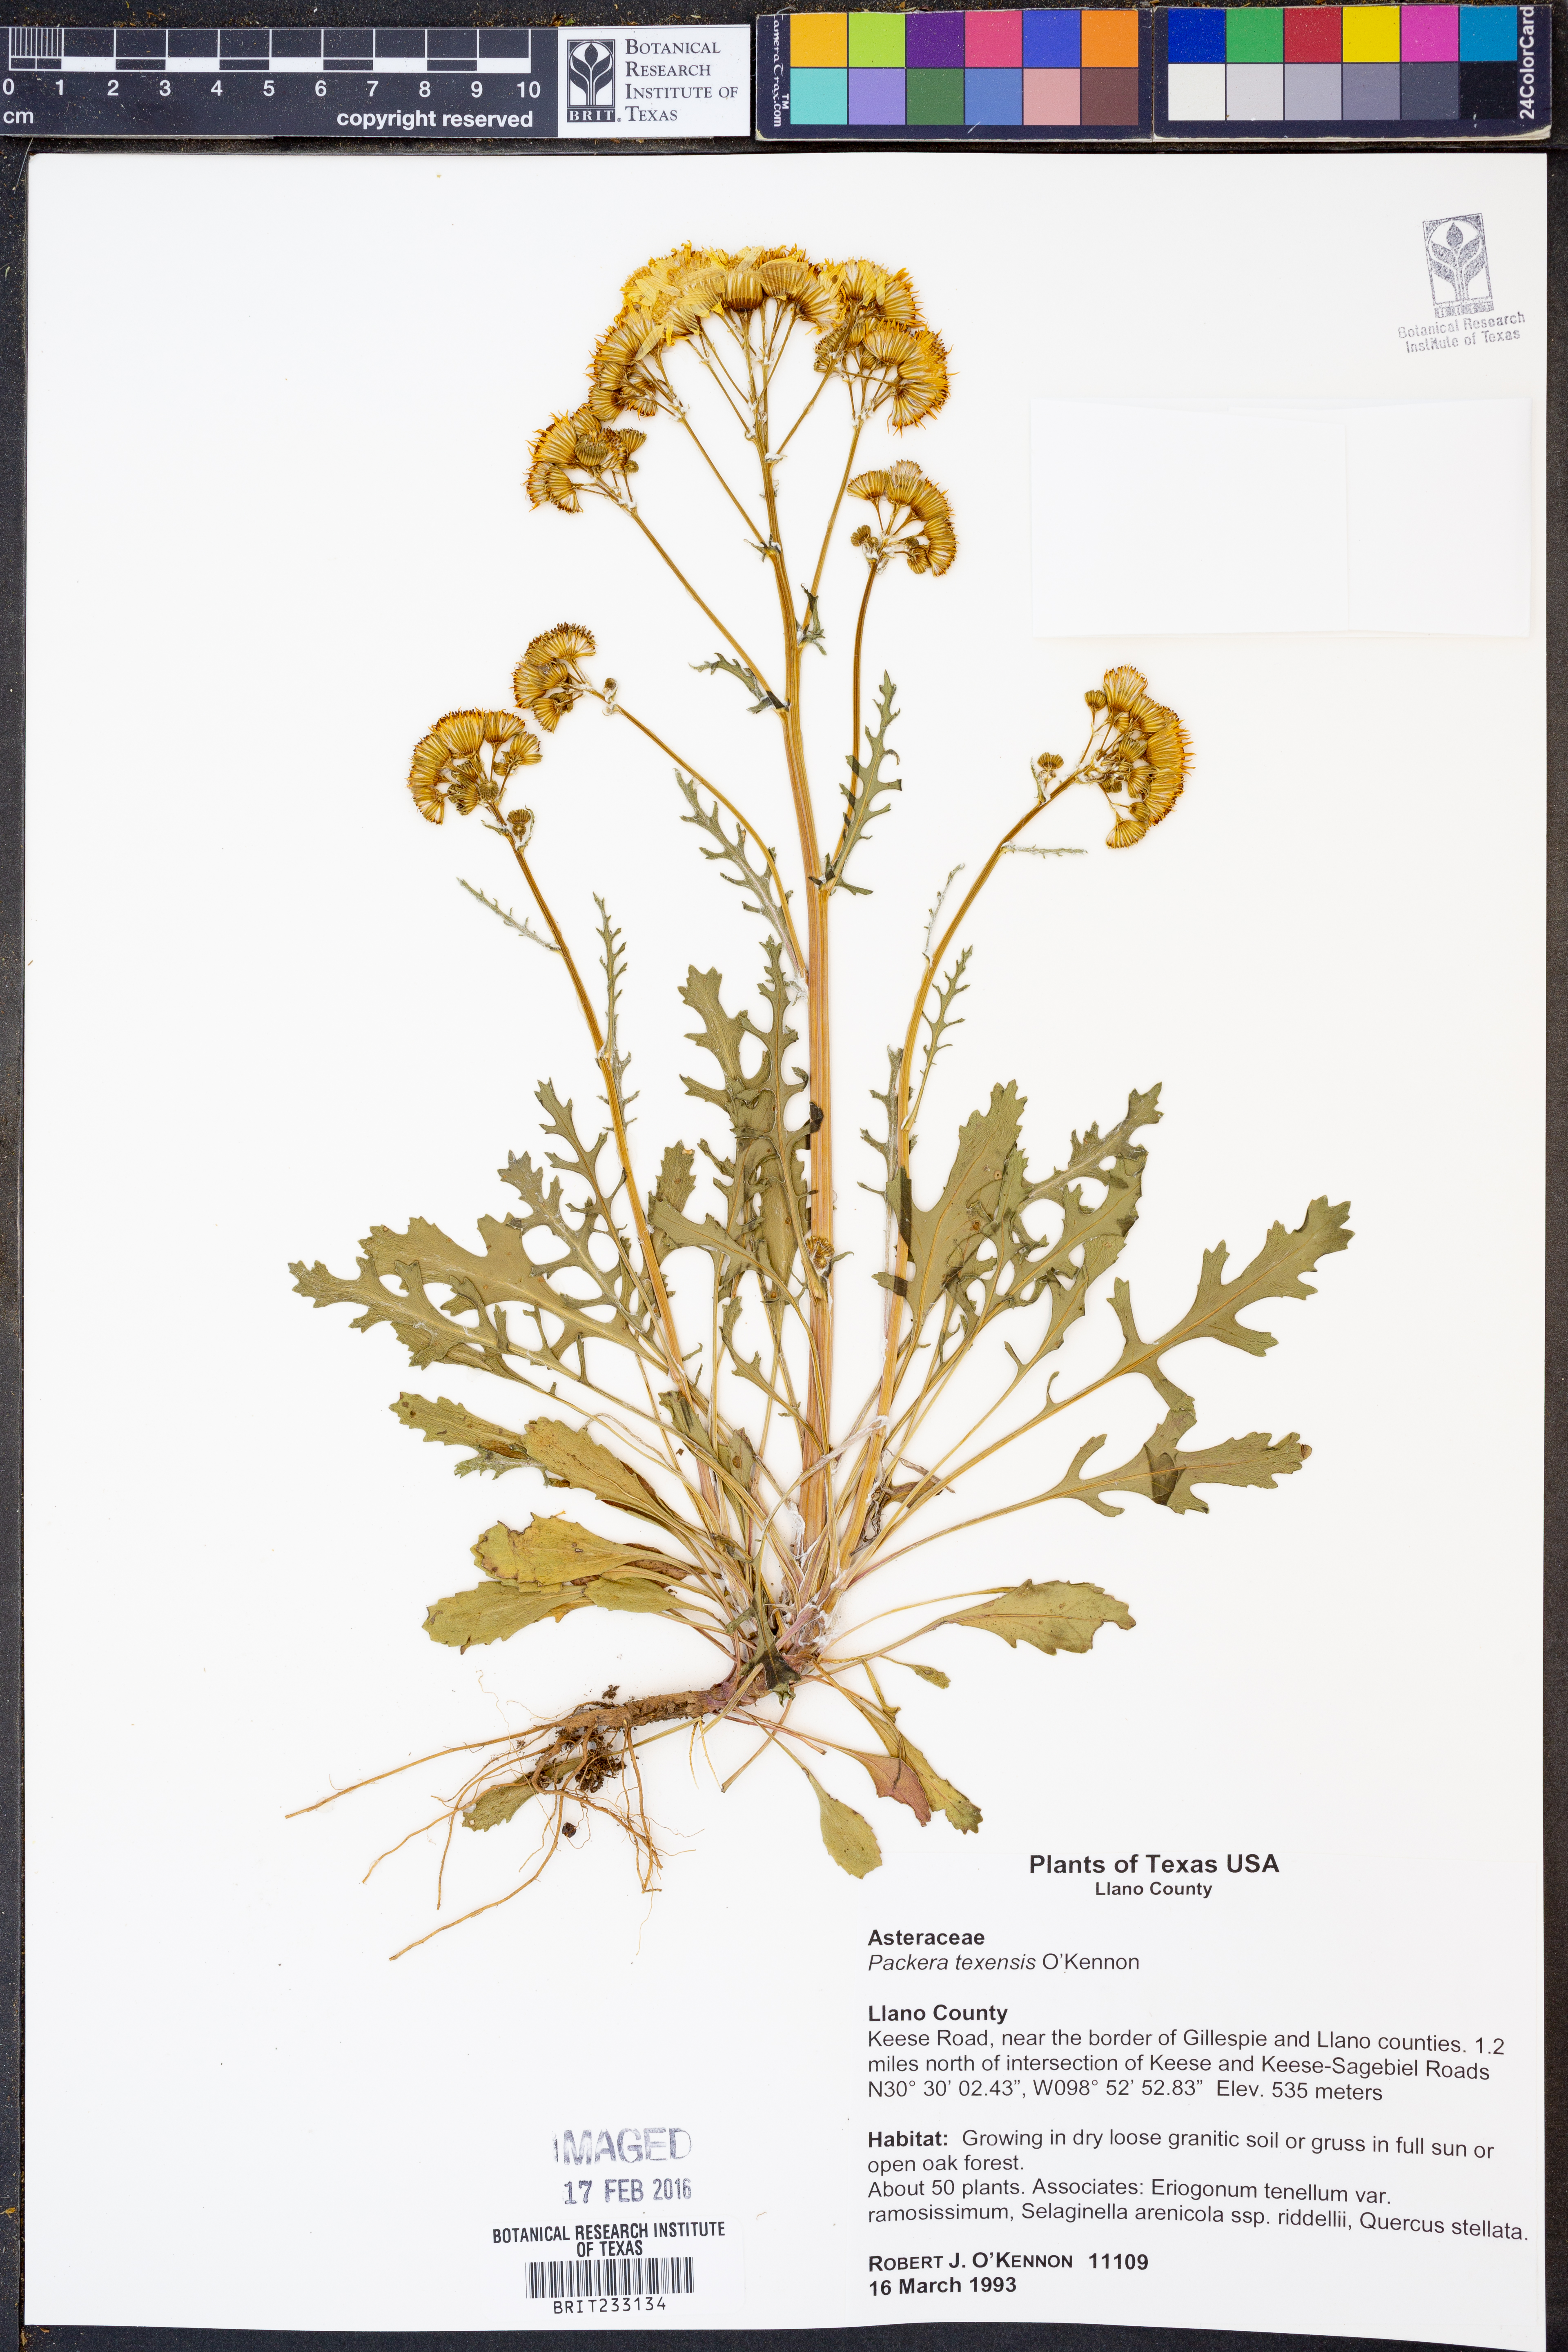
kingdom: Plantae
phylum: Tracheophyta
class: Magnoliopsida
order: Asterales
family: Asteraceae
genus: Packera
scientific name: Packera texensis
